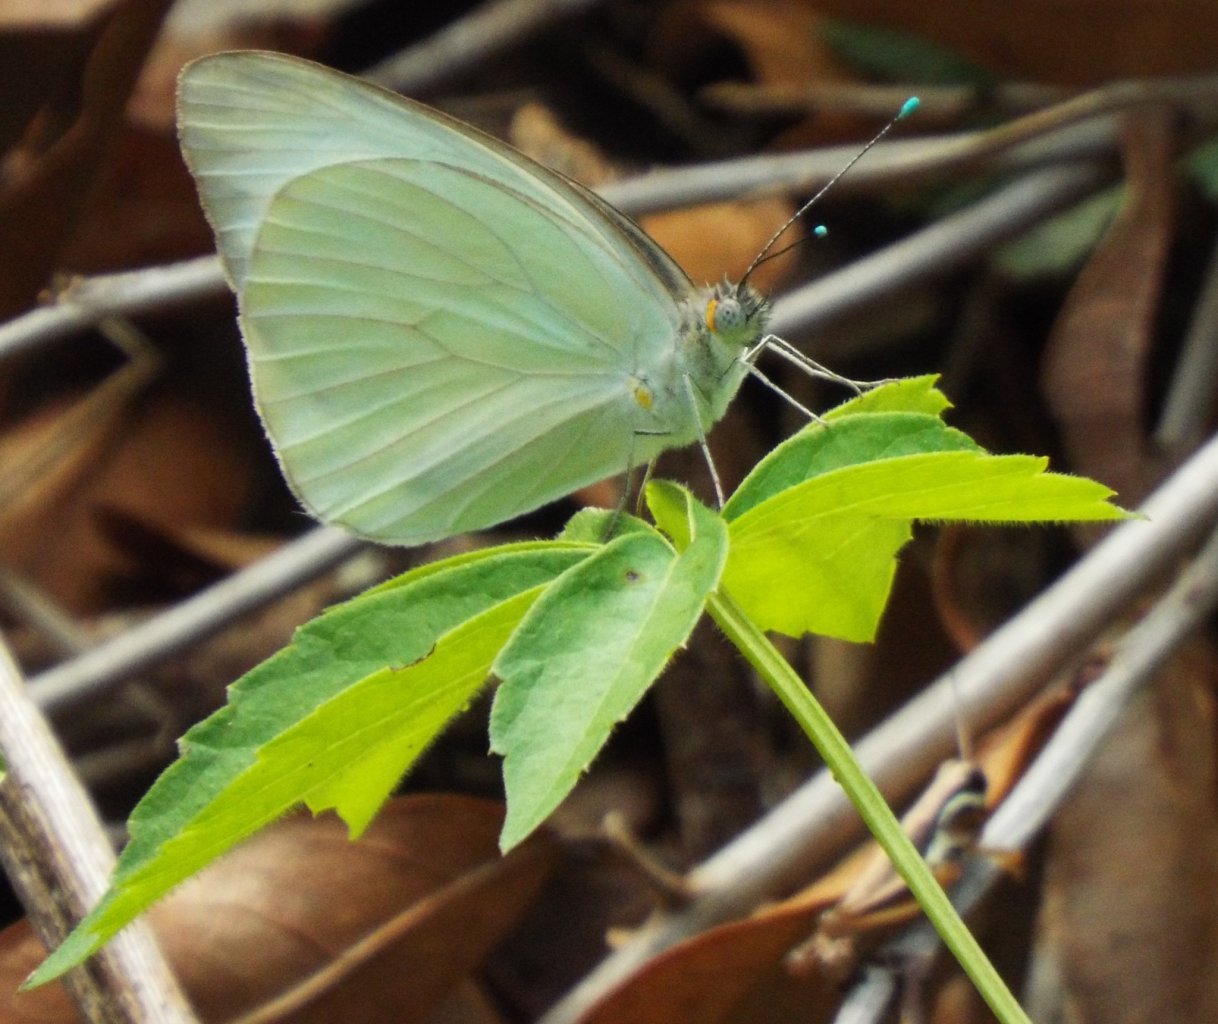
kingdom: Animalia
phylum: Arthropoda
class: Insecta
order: Lepidoptera
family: Pieridae
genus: Ascia
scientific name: Ascia monuste
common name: Great Southern White
